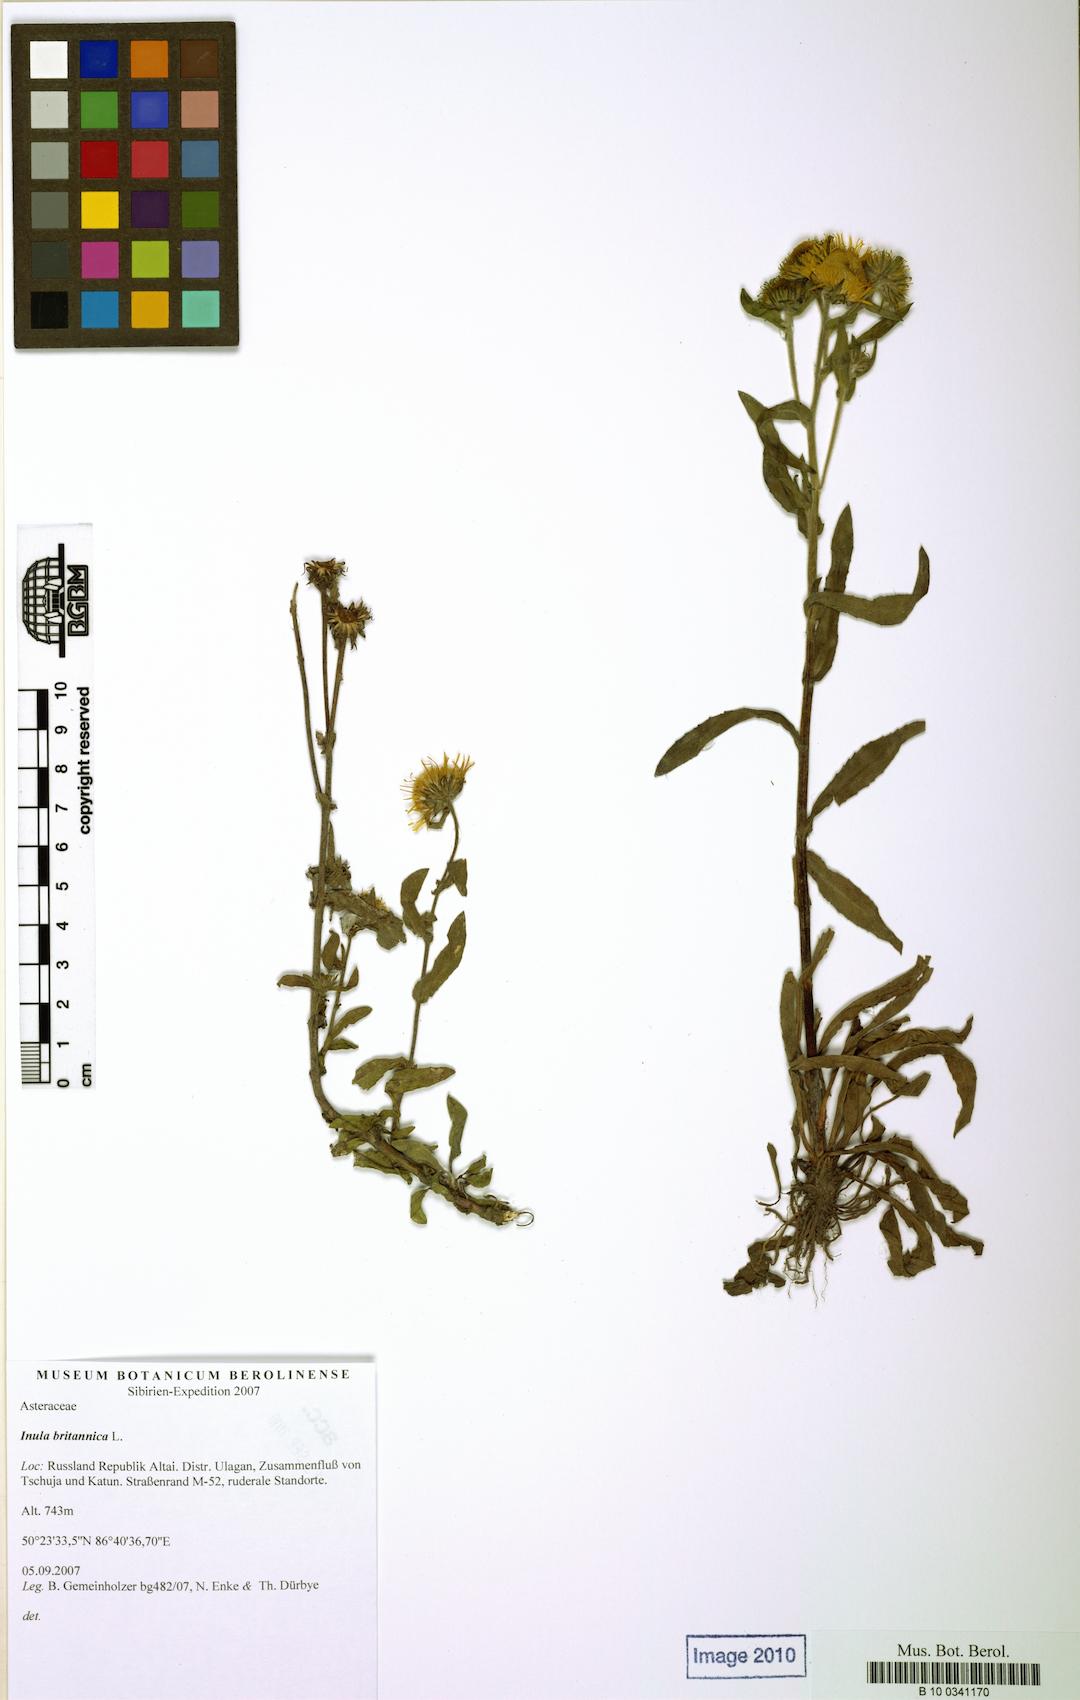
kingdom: Plantae
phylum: Tracheophyta
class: Magnoliopsida
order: Asterales
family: Asteraceae
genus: Pentanema
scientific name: Pentanema britannicum
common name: British elecampane
